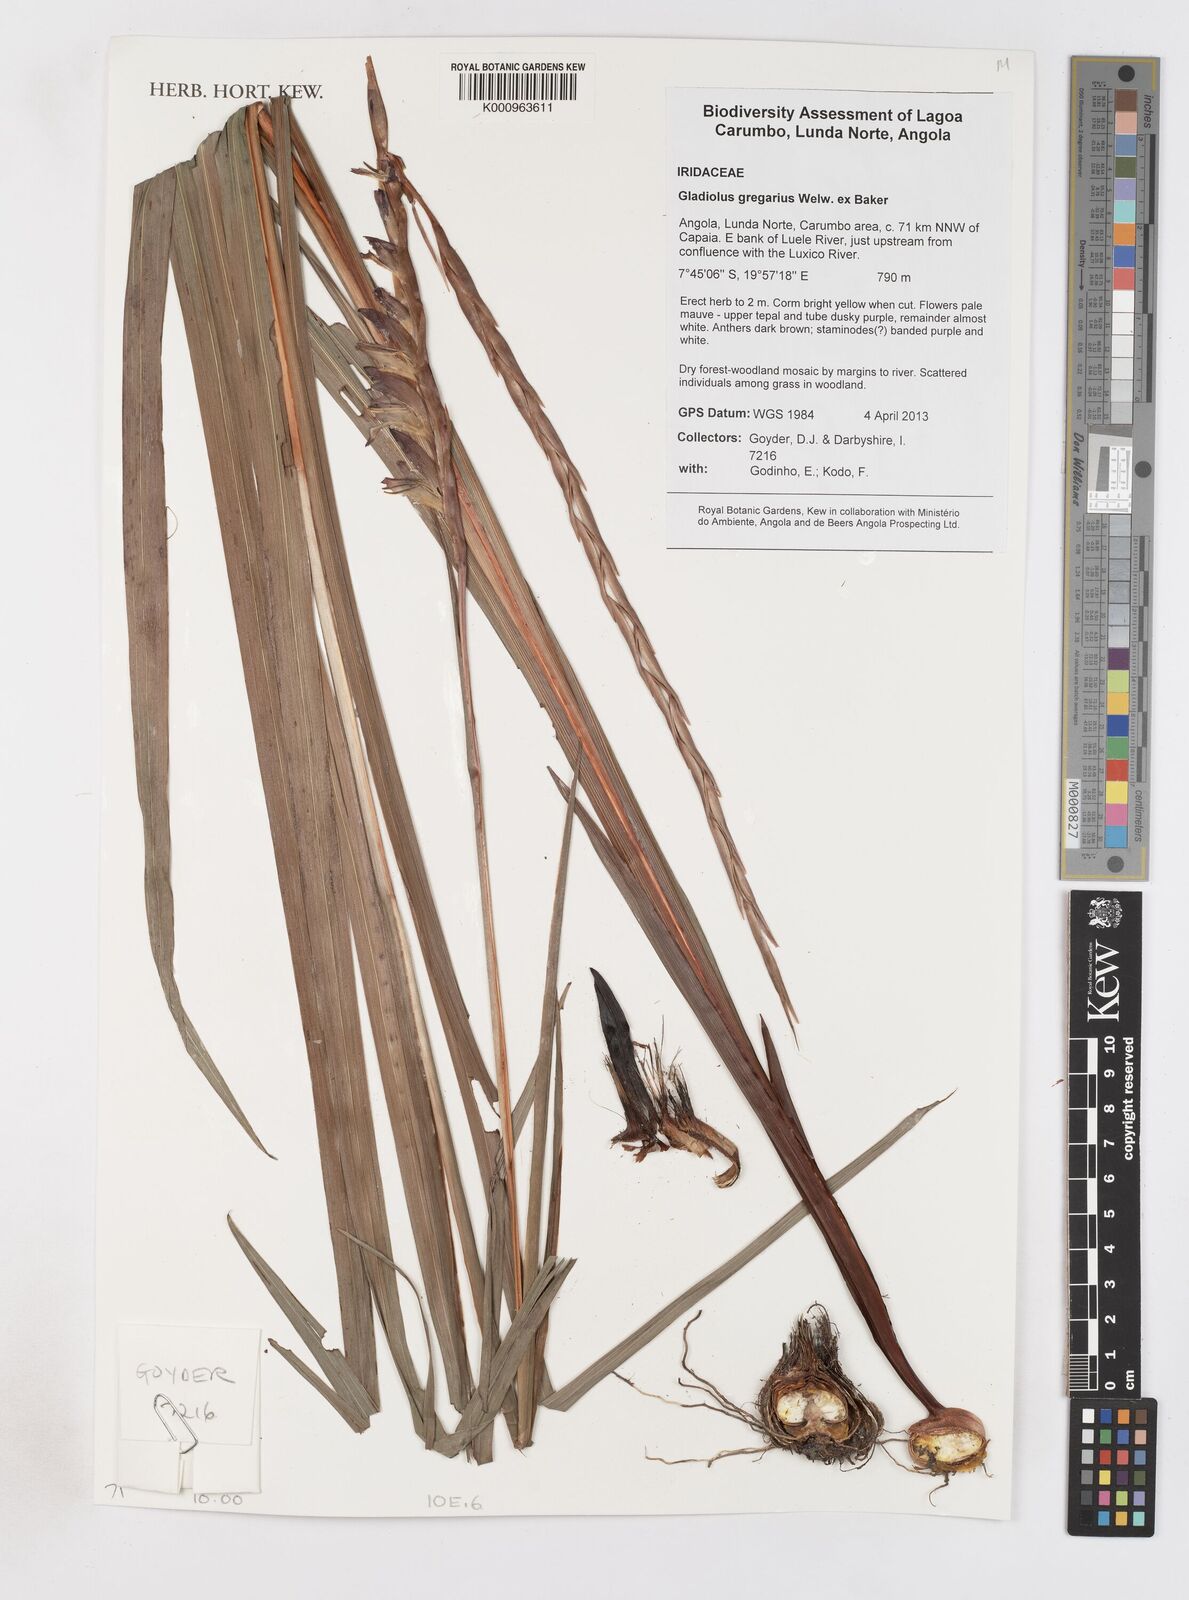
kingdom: Plantae
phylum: Tracheophyta
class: Liliopsida
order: Asparagales
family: Iridaceae
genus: Gladiolus
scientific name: Gladiolus gregarius
